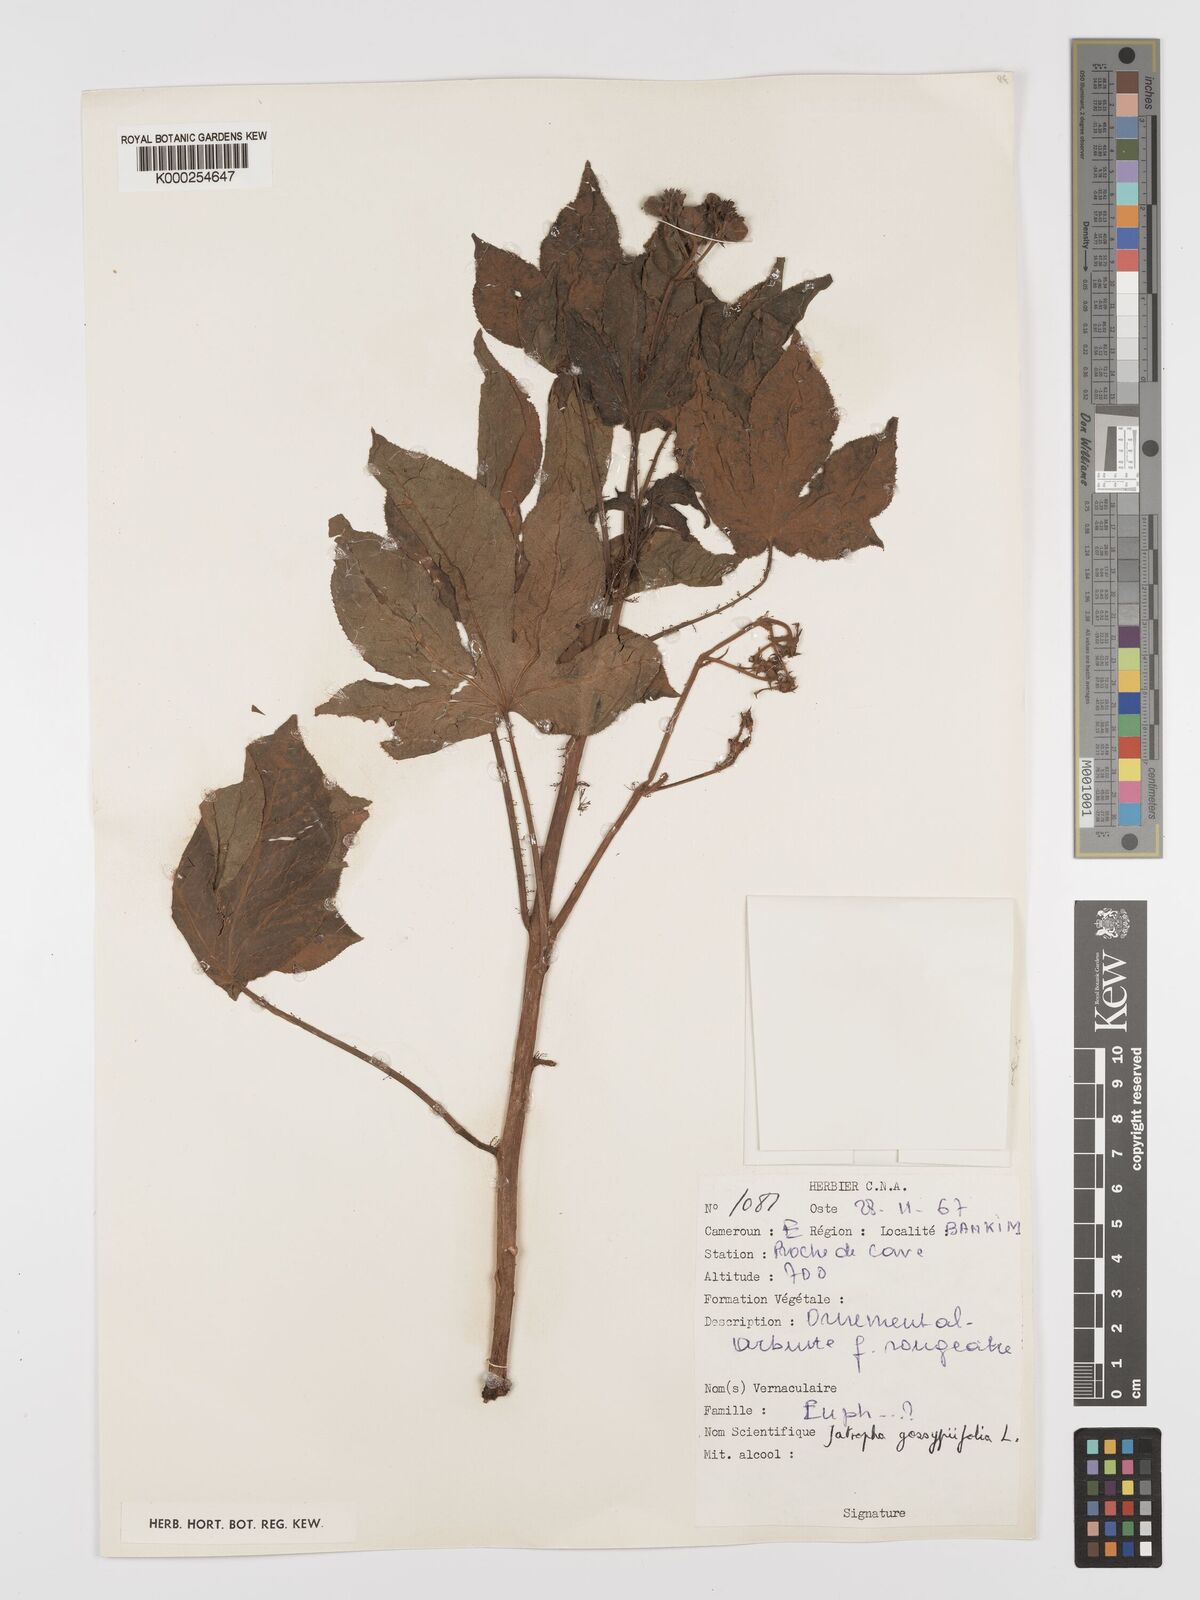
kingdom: Plantae
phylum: Tracheophyta
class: Magnoliopsida
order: Malpighiales
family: Euphorbiaceae
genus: Jatropha
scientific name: Jatropha gossypiifolia
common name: Bellyache bush
